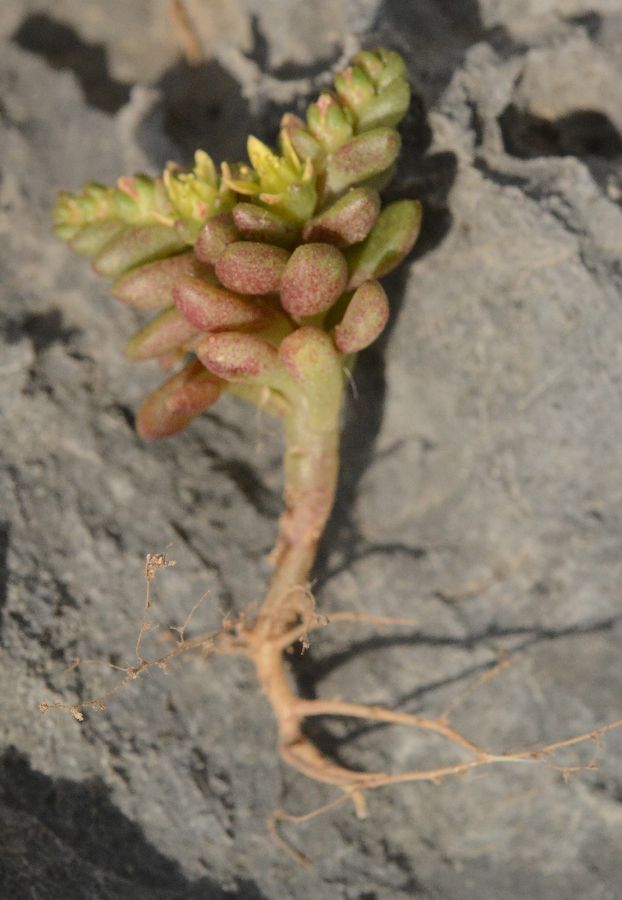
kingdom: Plantae
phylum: Tracheophyta
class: Magnoliopsida
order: Saxifragales
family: Crassulaceae
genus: Sedum
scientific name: Sedum litoreum
